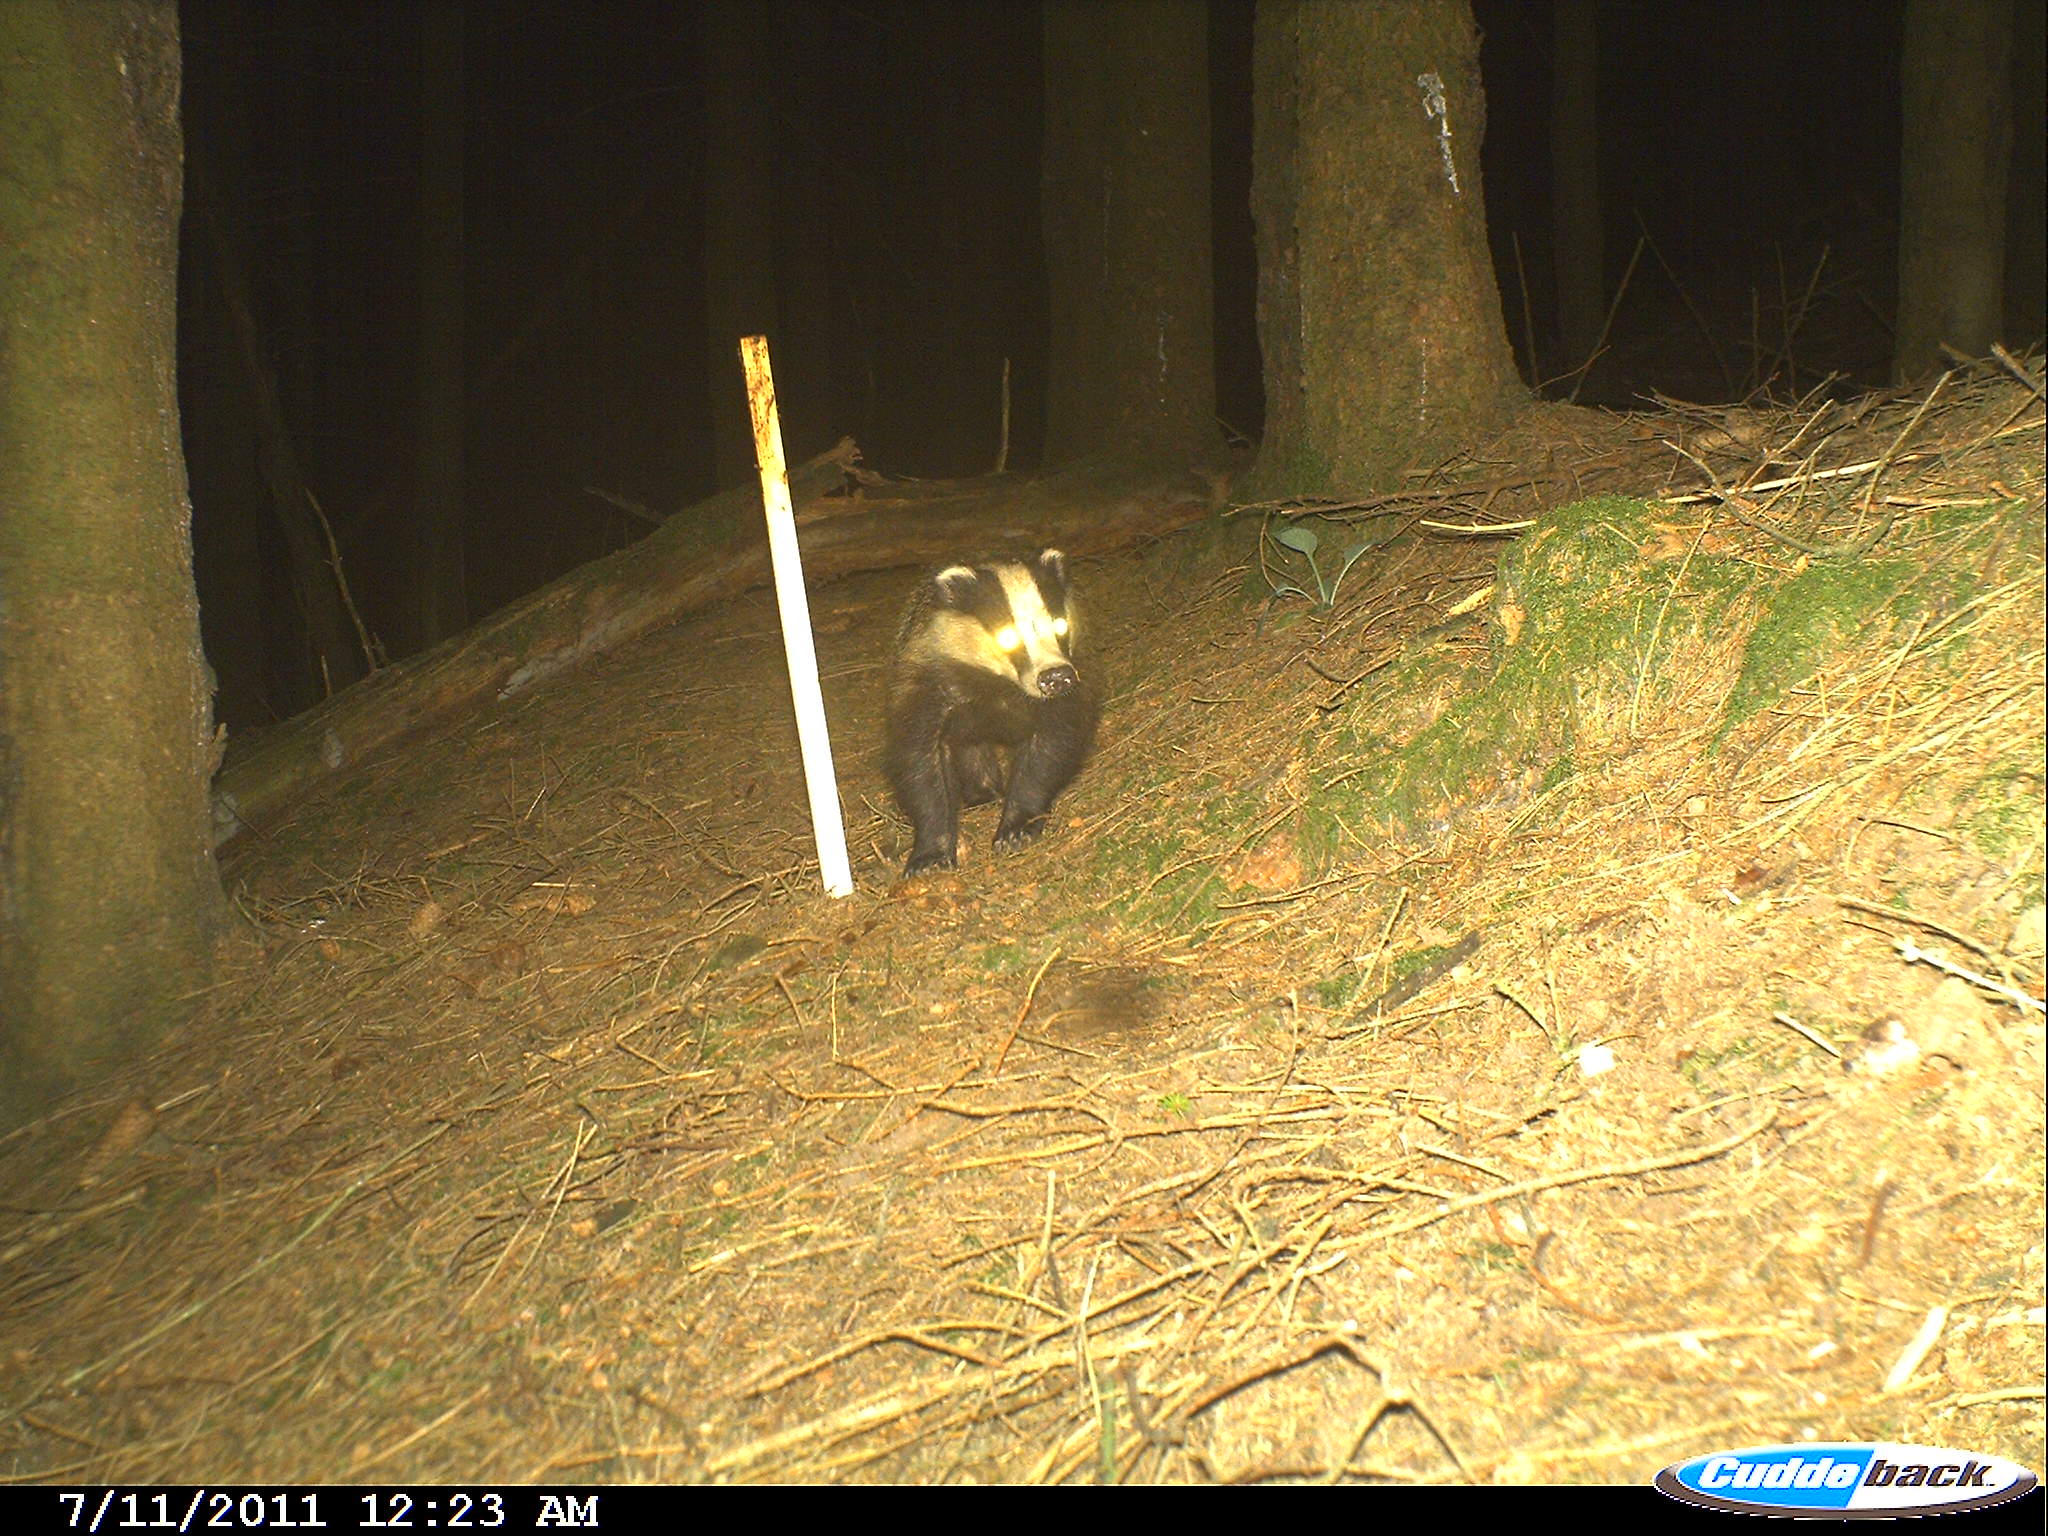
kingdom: Animalia
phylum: Chordata
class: Mammalia
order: Carnivora
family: Mustelidae
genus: Meles
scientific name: Meles meles
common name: Eurasian badger
